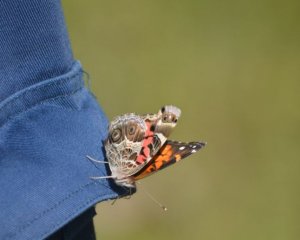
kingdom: Animalia
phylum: Arthropoda
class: Insecta
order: Lepidoptera
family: Nymphalidae
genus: Vanessa
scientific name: Vanessa virginiensis
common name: American Lady
